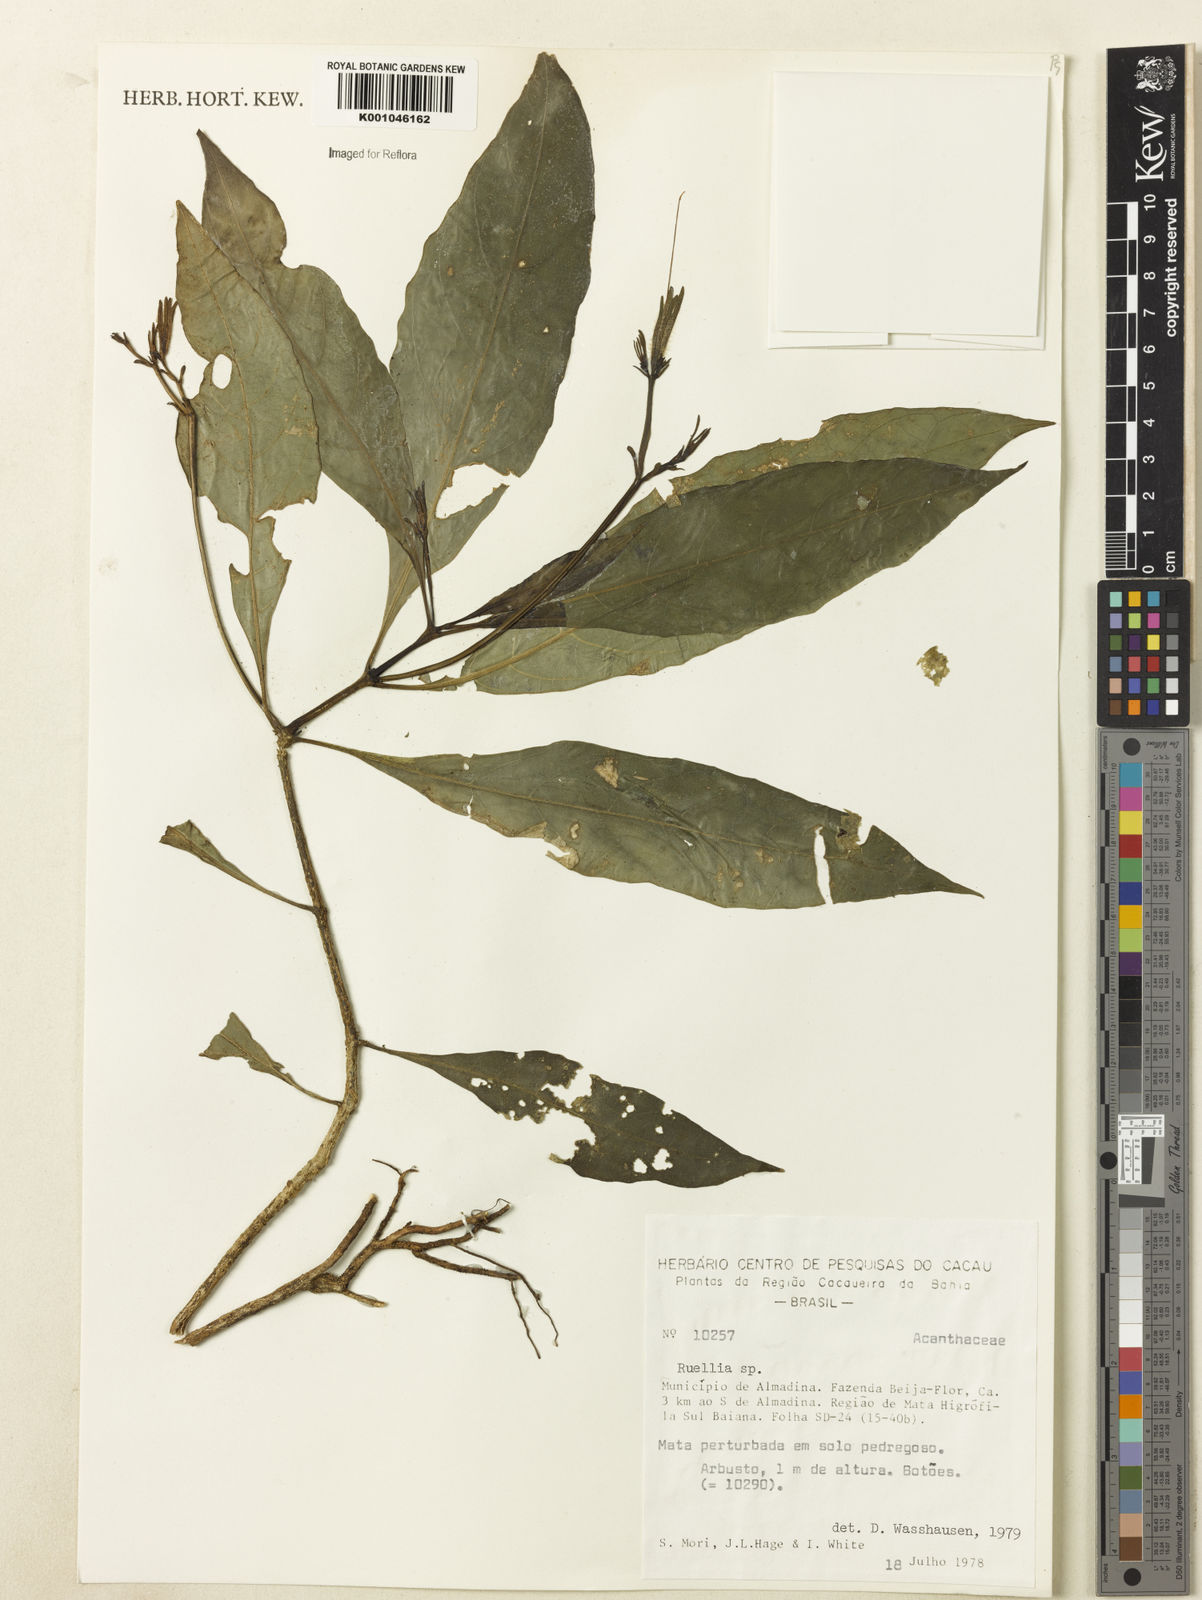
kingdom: Plantae
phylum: Tracheophyta
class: Magnoliopsida
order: Lamiales
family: Acanthaceae
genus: Ruellia
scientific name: Ruellia
